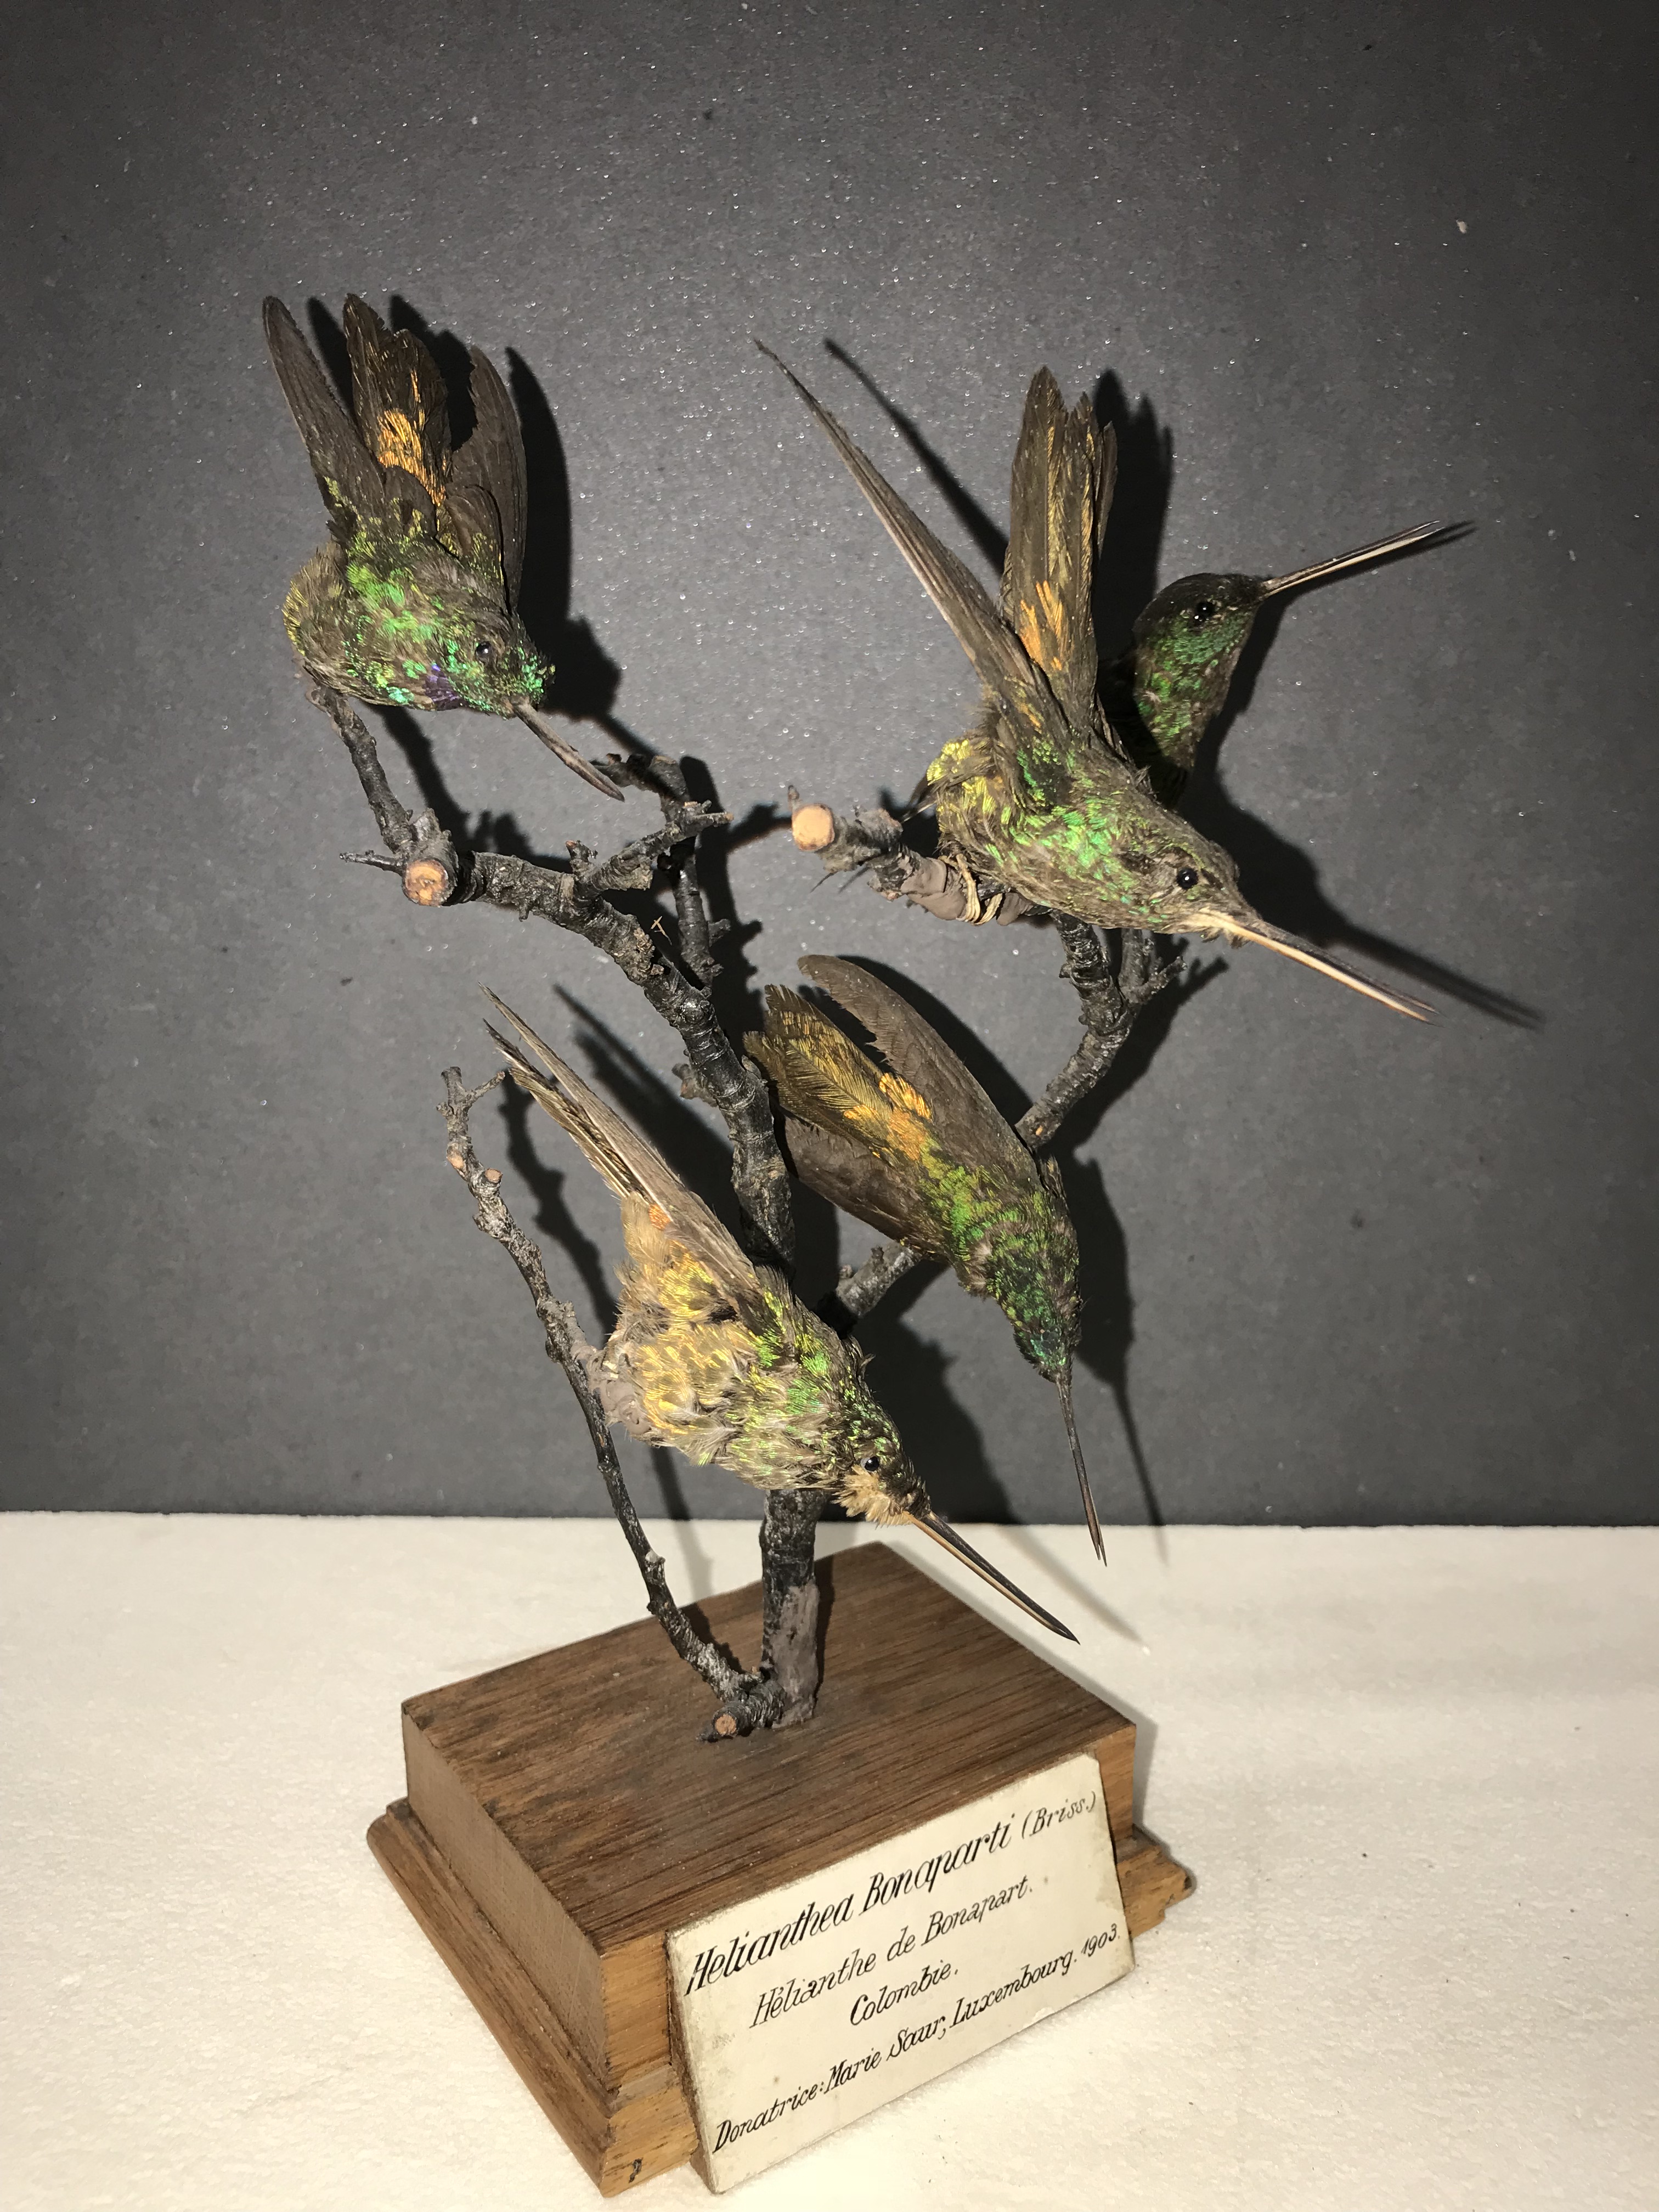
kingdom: Animalia
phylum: Chordata
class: Aves
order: Apodiformes
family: Trochilidae
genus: Coeligena
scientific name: Coeligena bonapartei
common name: Golden-bellied starfrontlet
